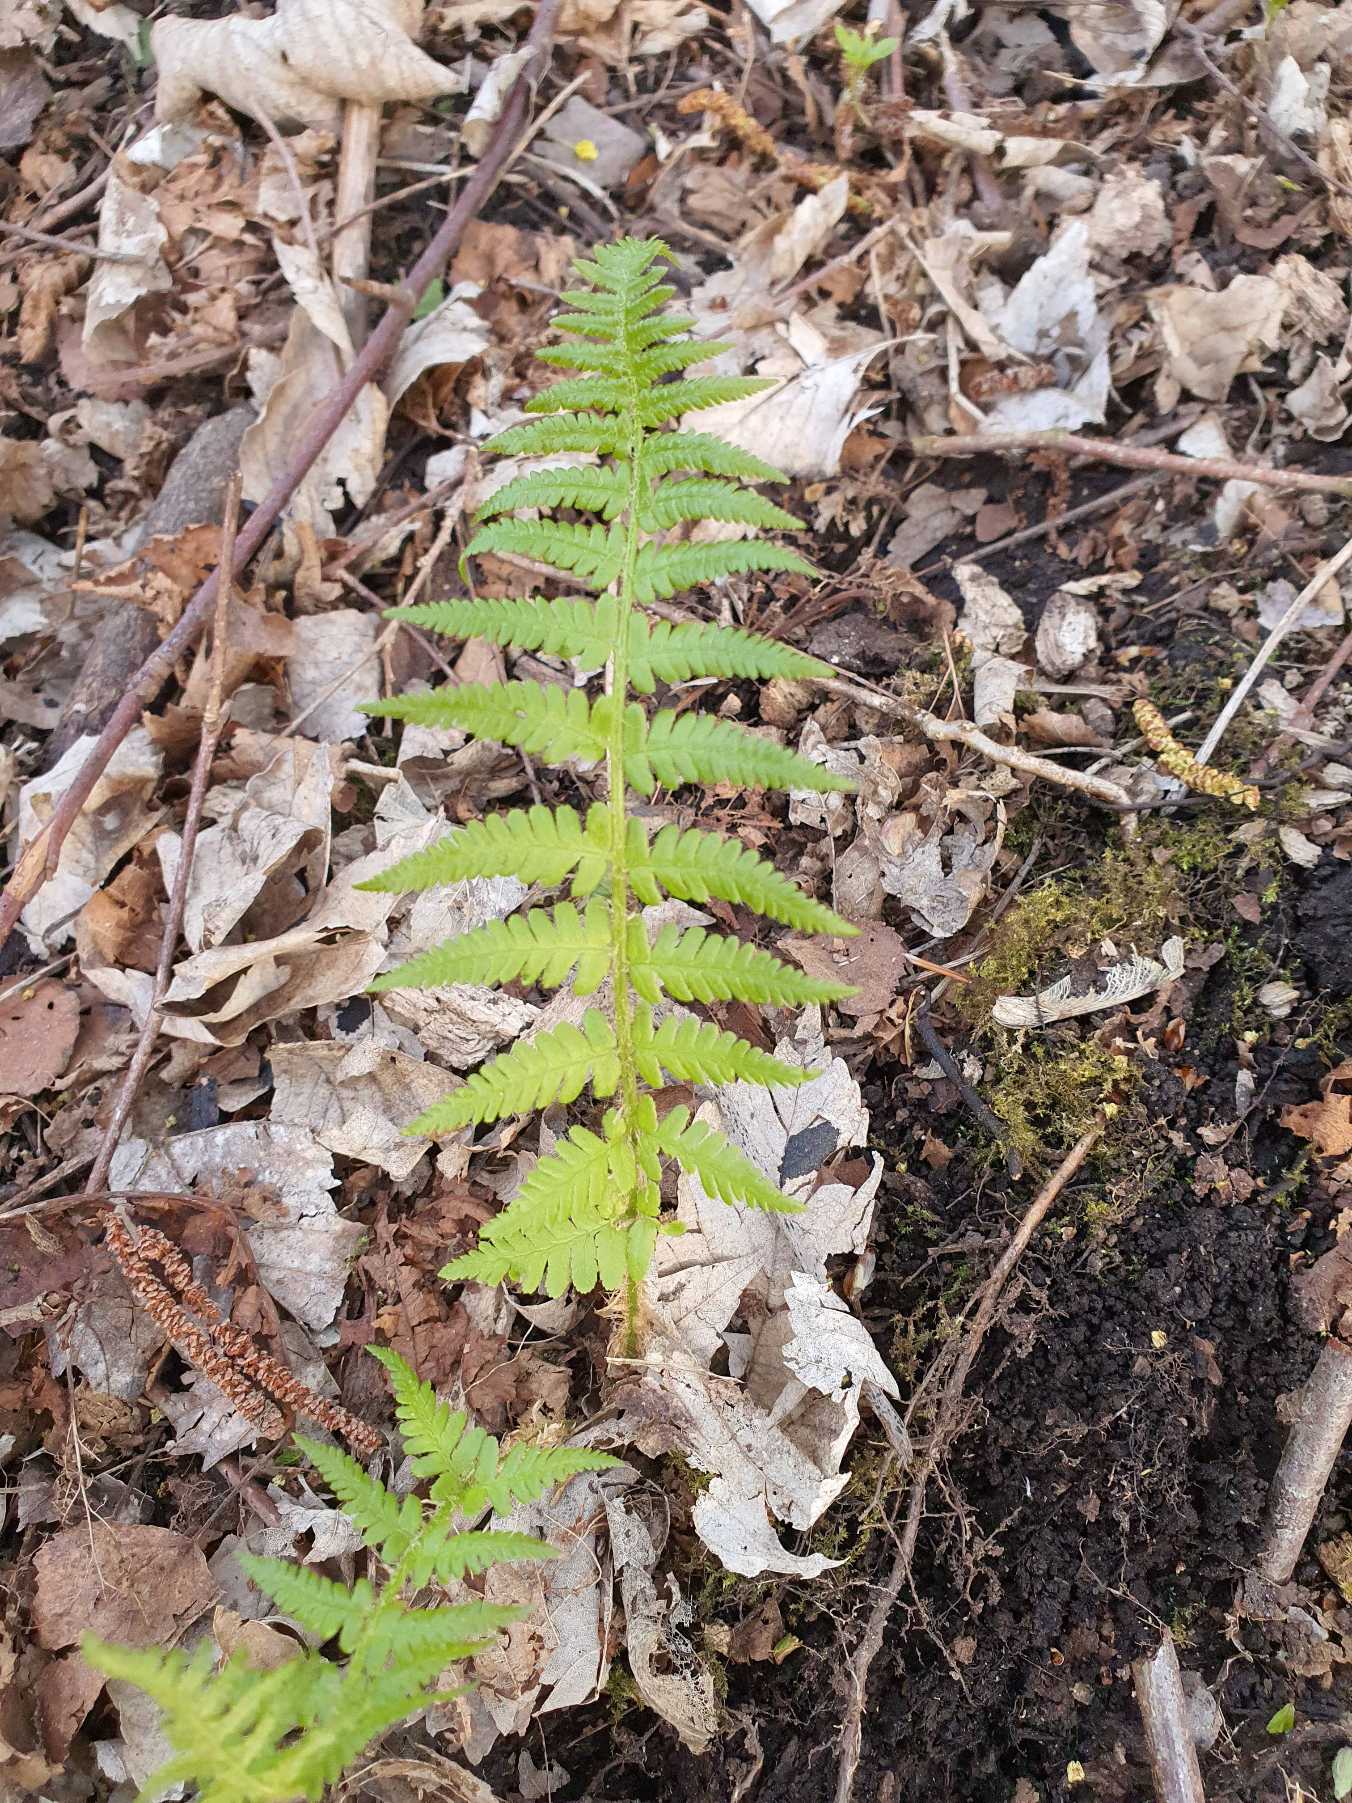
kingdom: Plantae
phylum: Tracheophyta
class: Polypodiopsida
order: Polypodiales
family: Dryopteridaceae
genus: Dryopteris
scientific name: Dryopteris filix-mas
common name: Almindelig mangeløv
